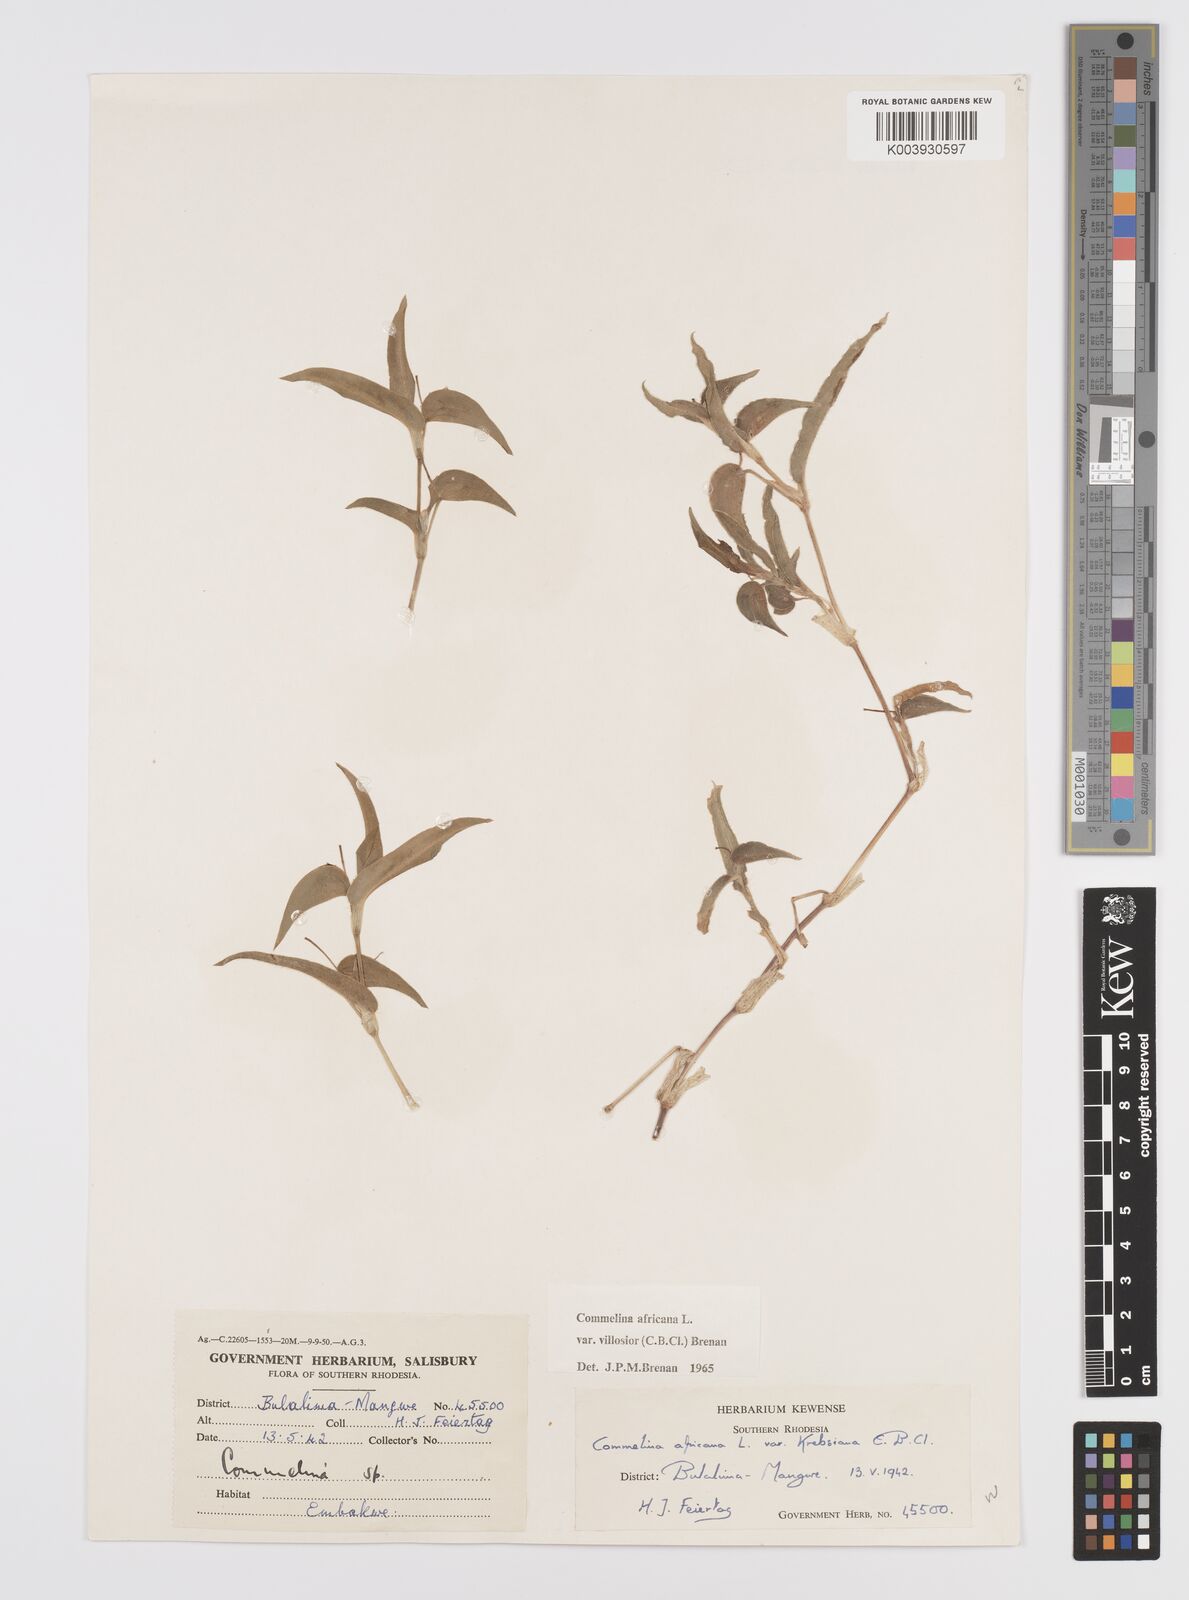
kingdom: Plantae
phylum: Tracheophyta
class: Liliopsida
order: Commelinales
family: Commelinaceae
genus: Commelina
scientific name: Commelina africana
